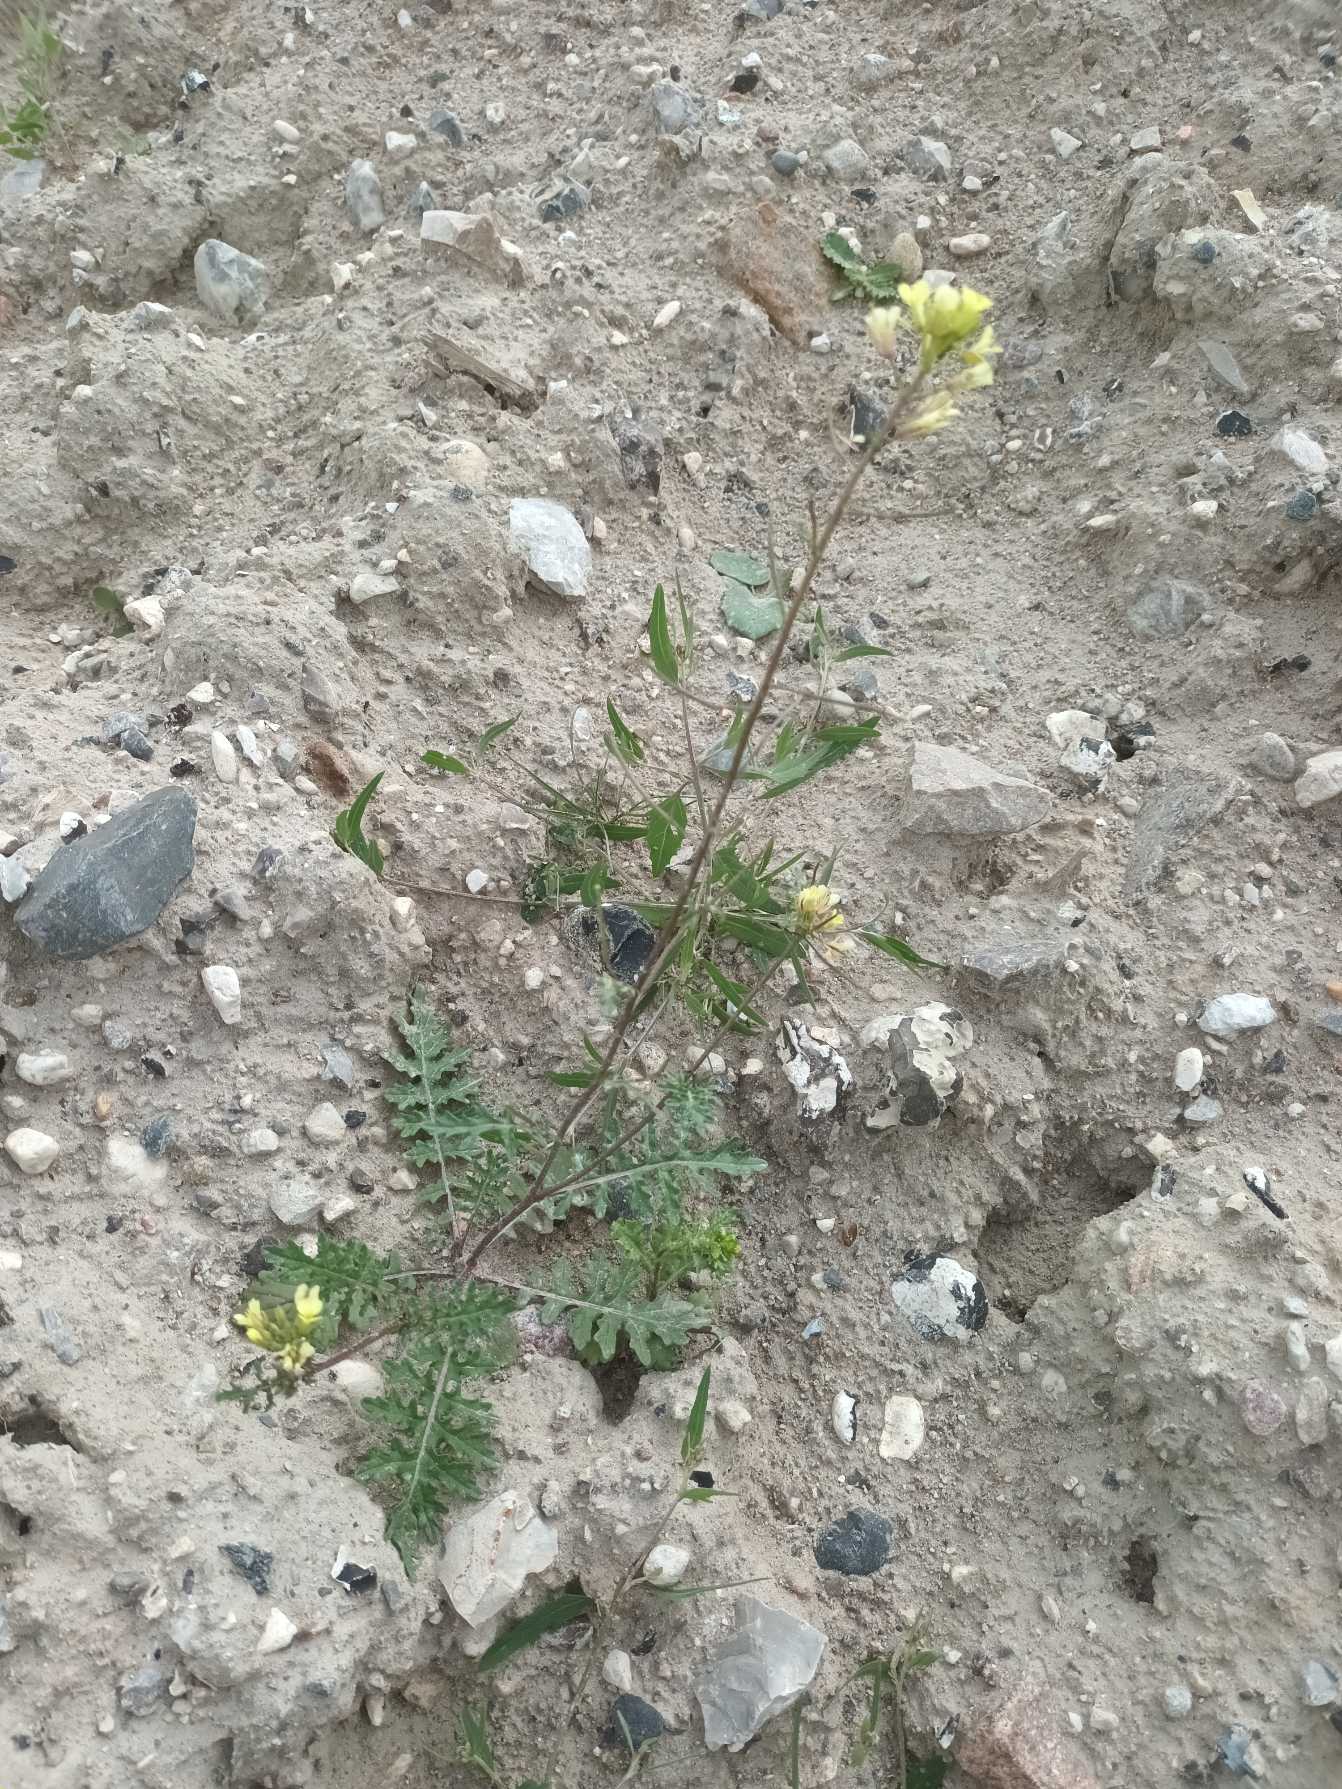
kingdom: Plantae
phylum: Tracheophyta
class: Magnoliopsida
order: Brassicales
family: Brassicaceae
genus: Erucastrum
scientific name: Erucastrum gallicum
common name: Svinesennep
